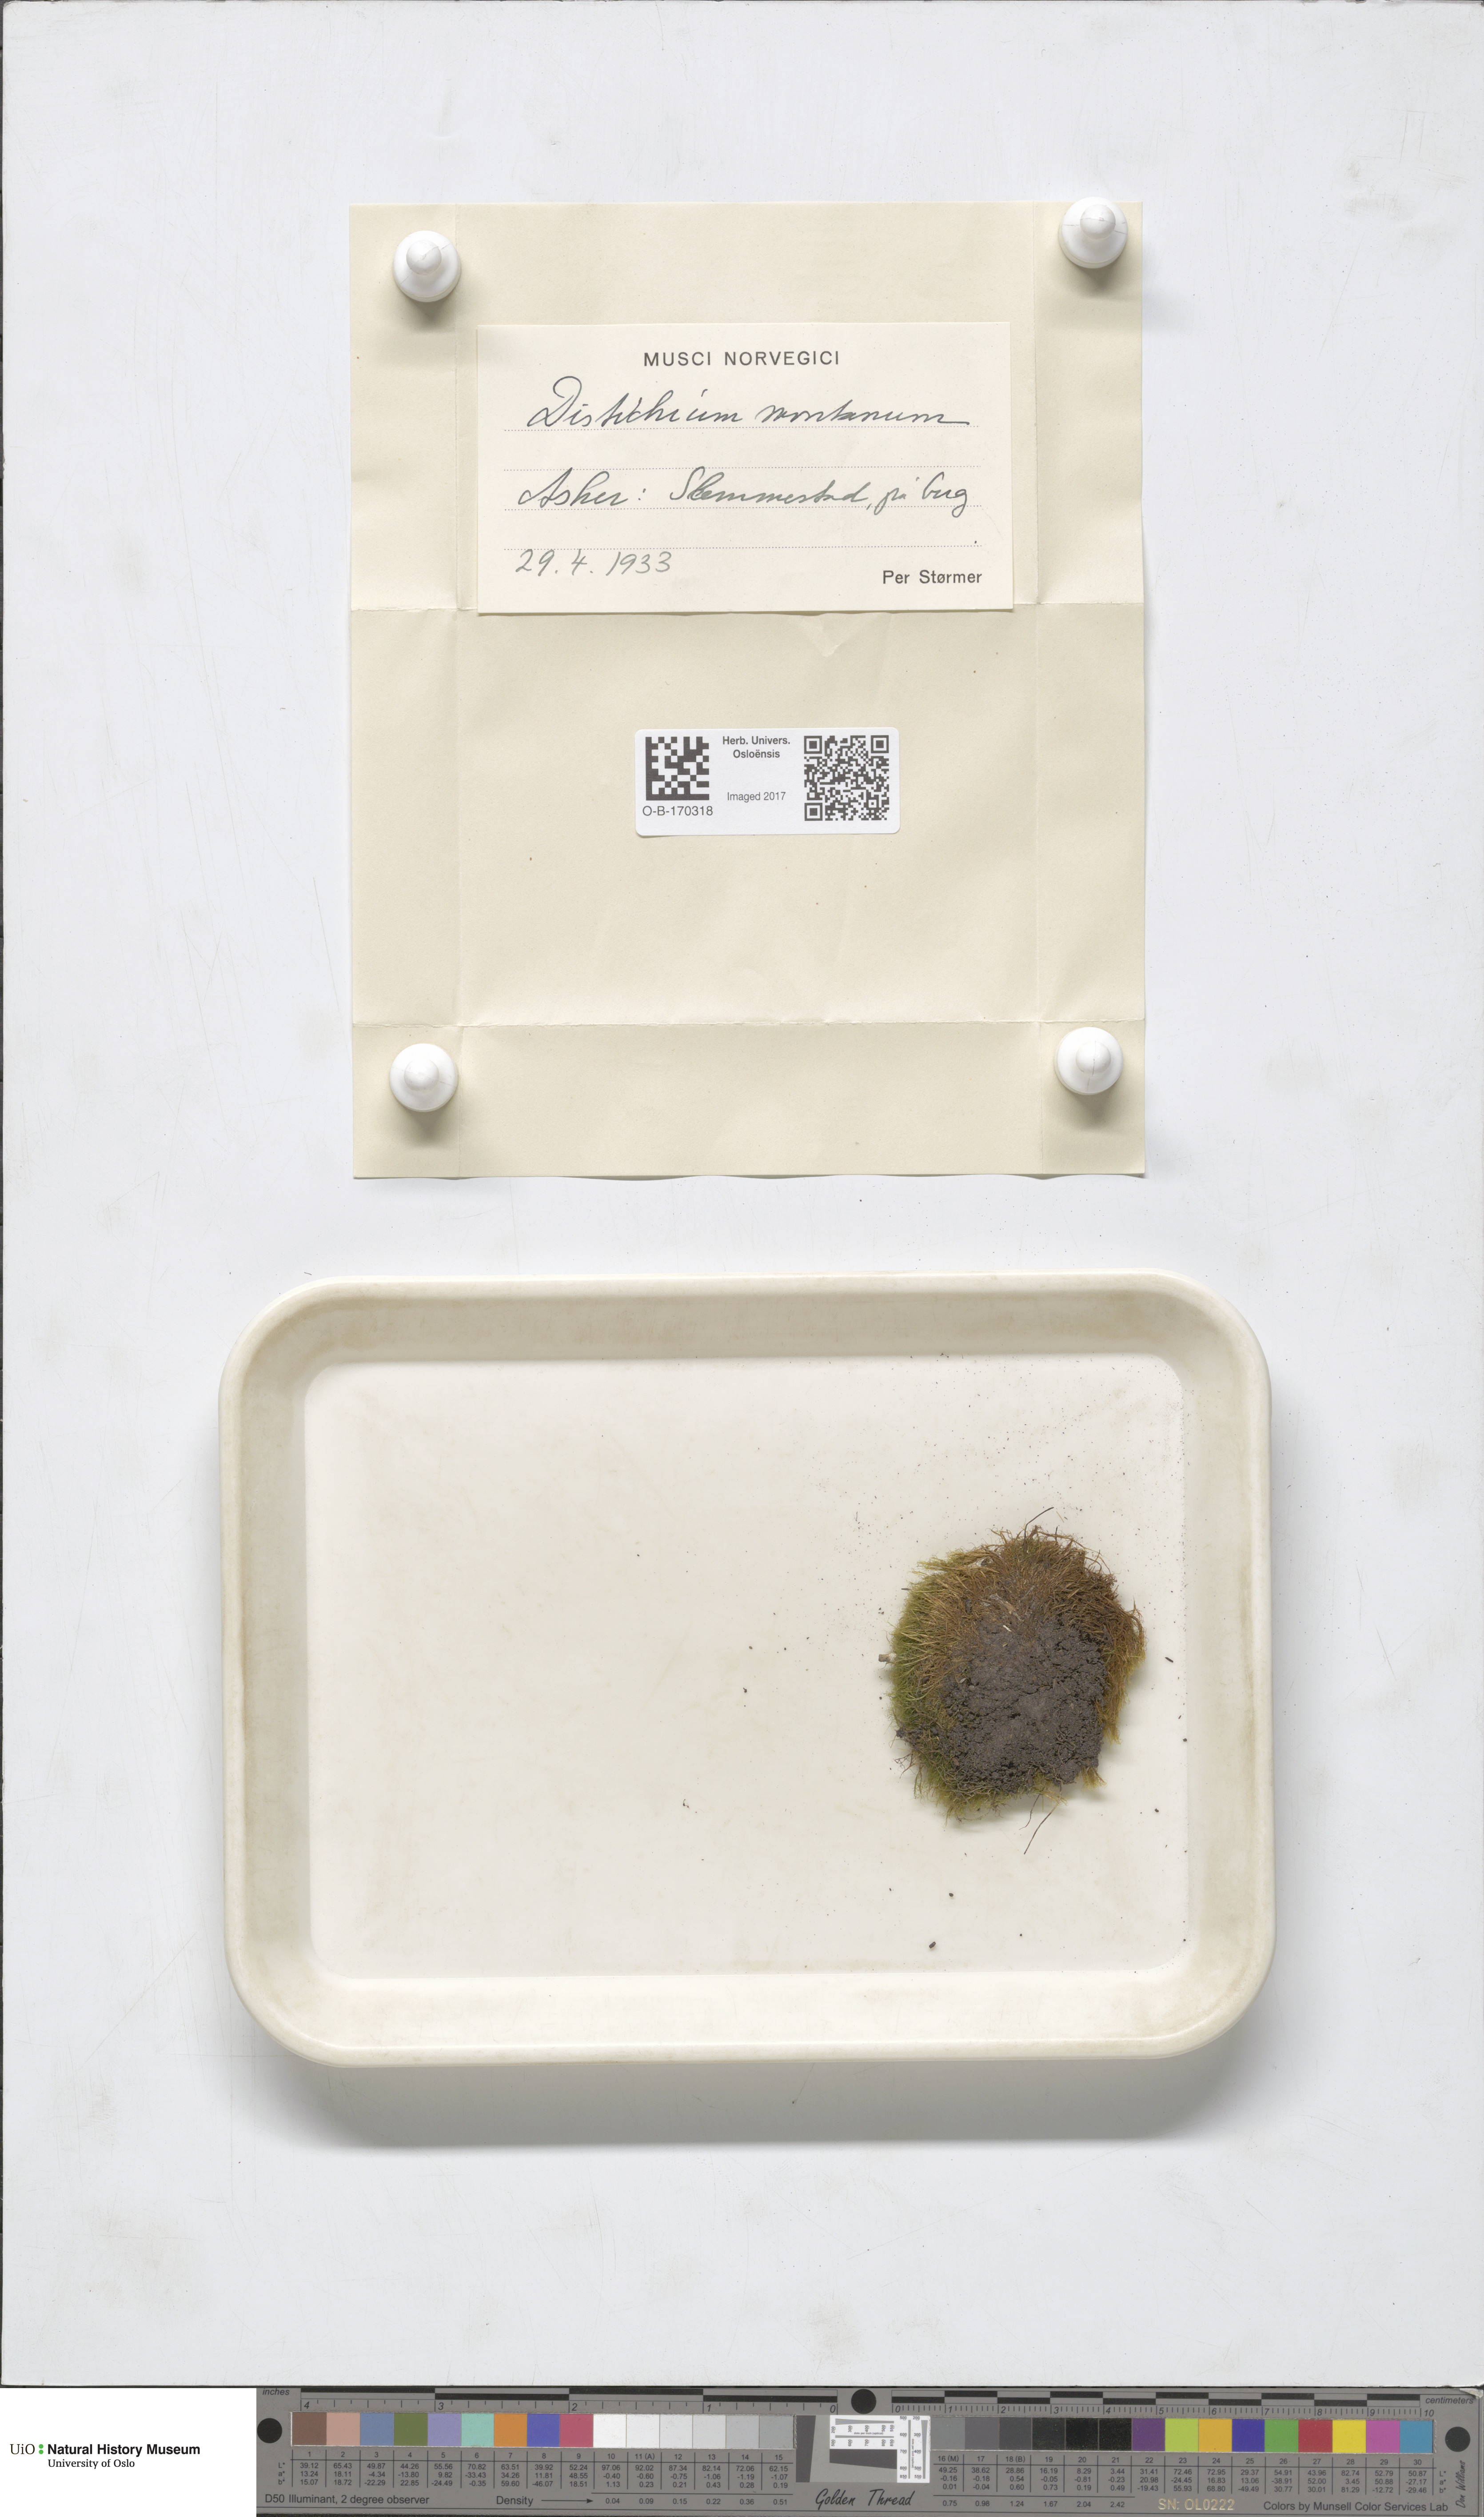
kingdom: Plantae
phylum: Bryophyta
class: Bryopsida
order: Scouleriales
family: Distichiaceae
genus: Distichium
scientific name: Distichium capillaceum
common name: Erect-fruited iris moss
